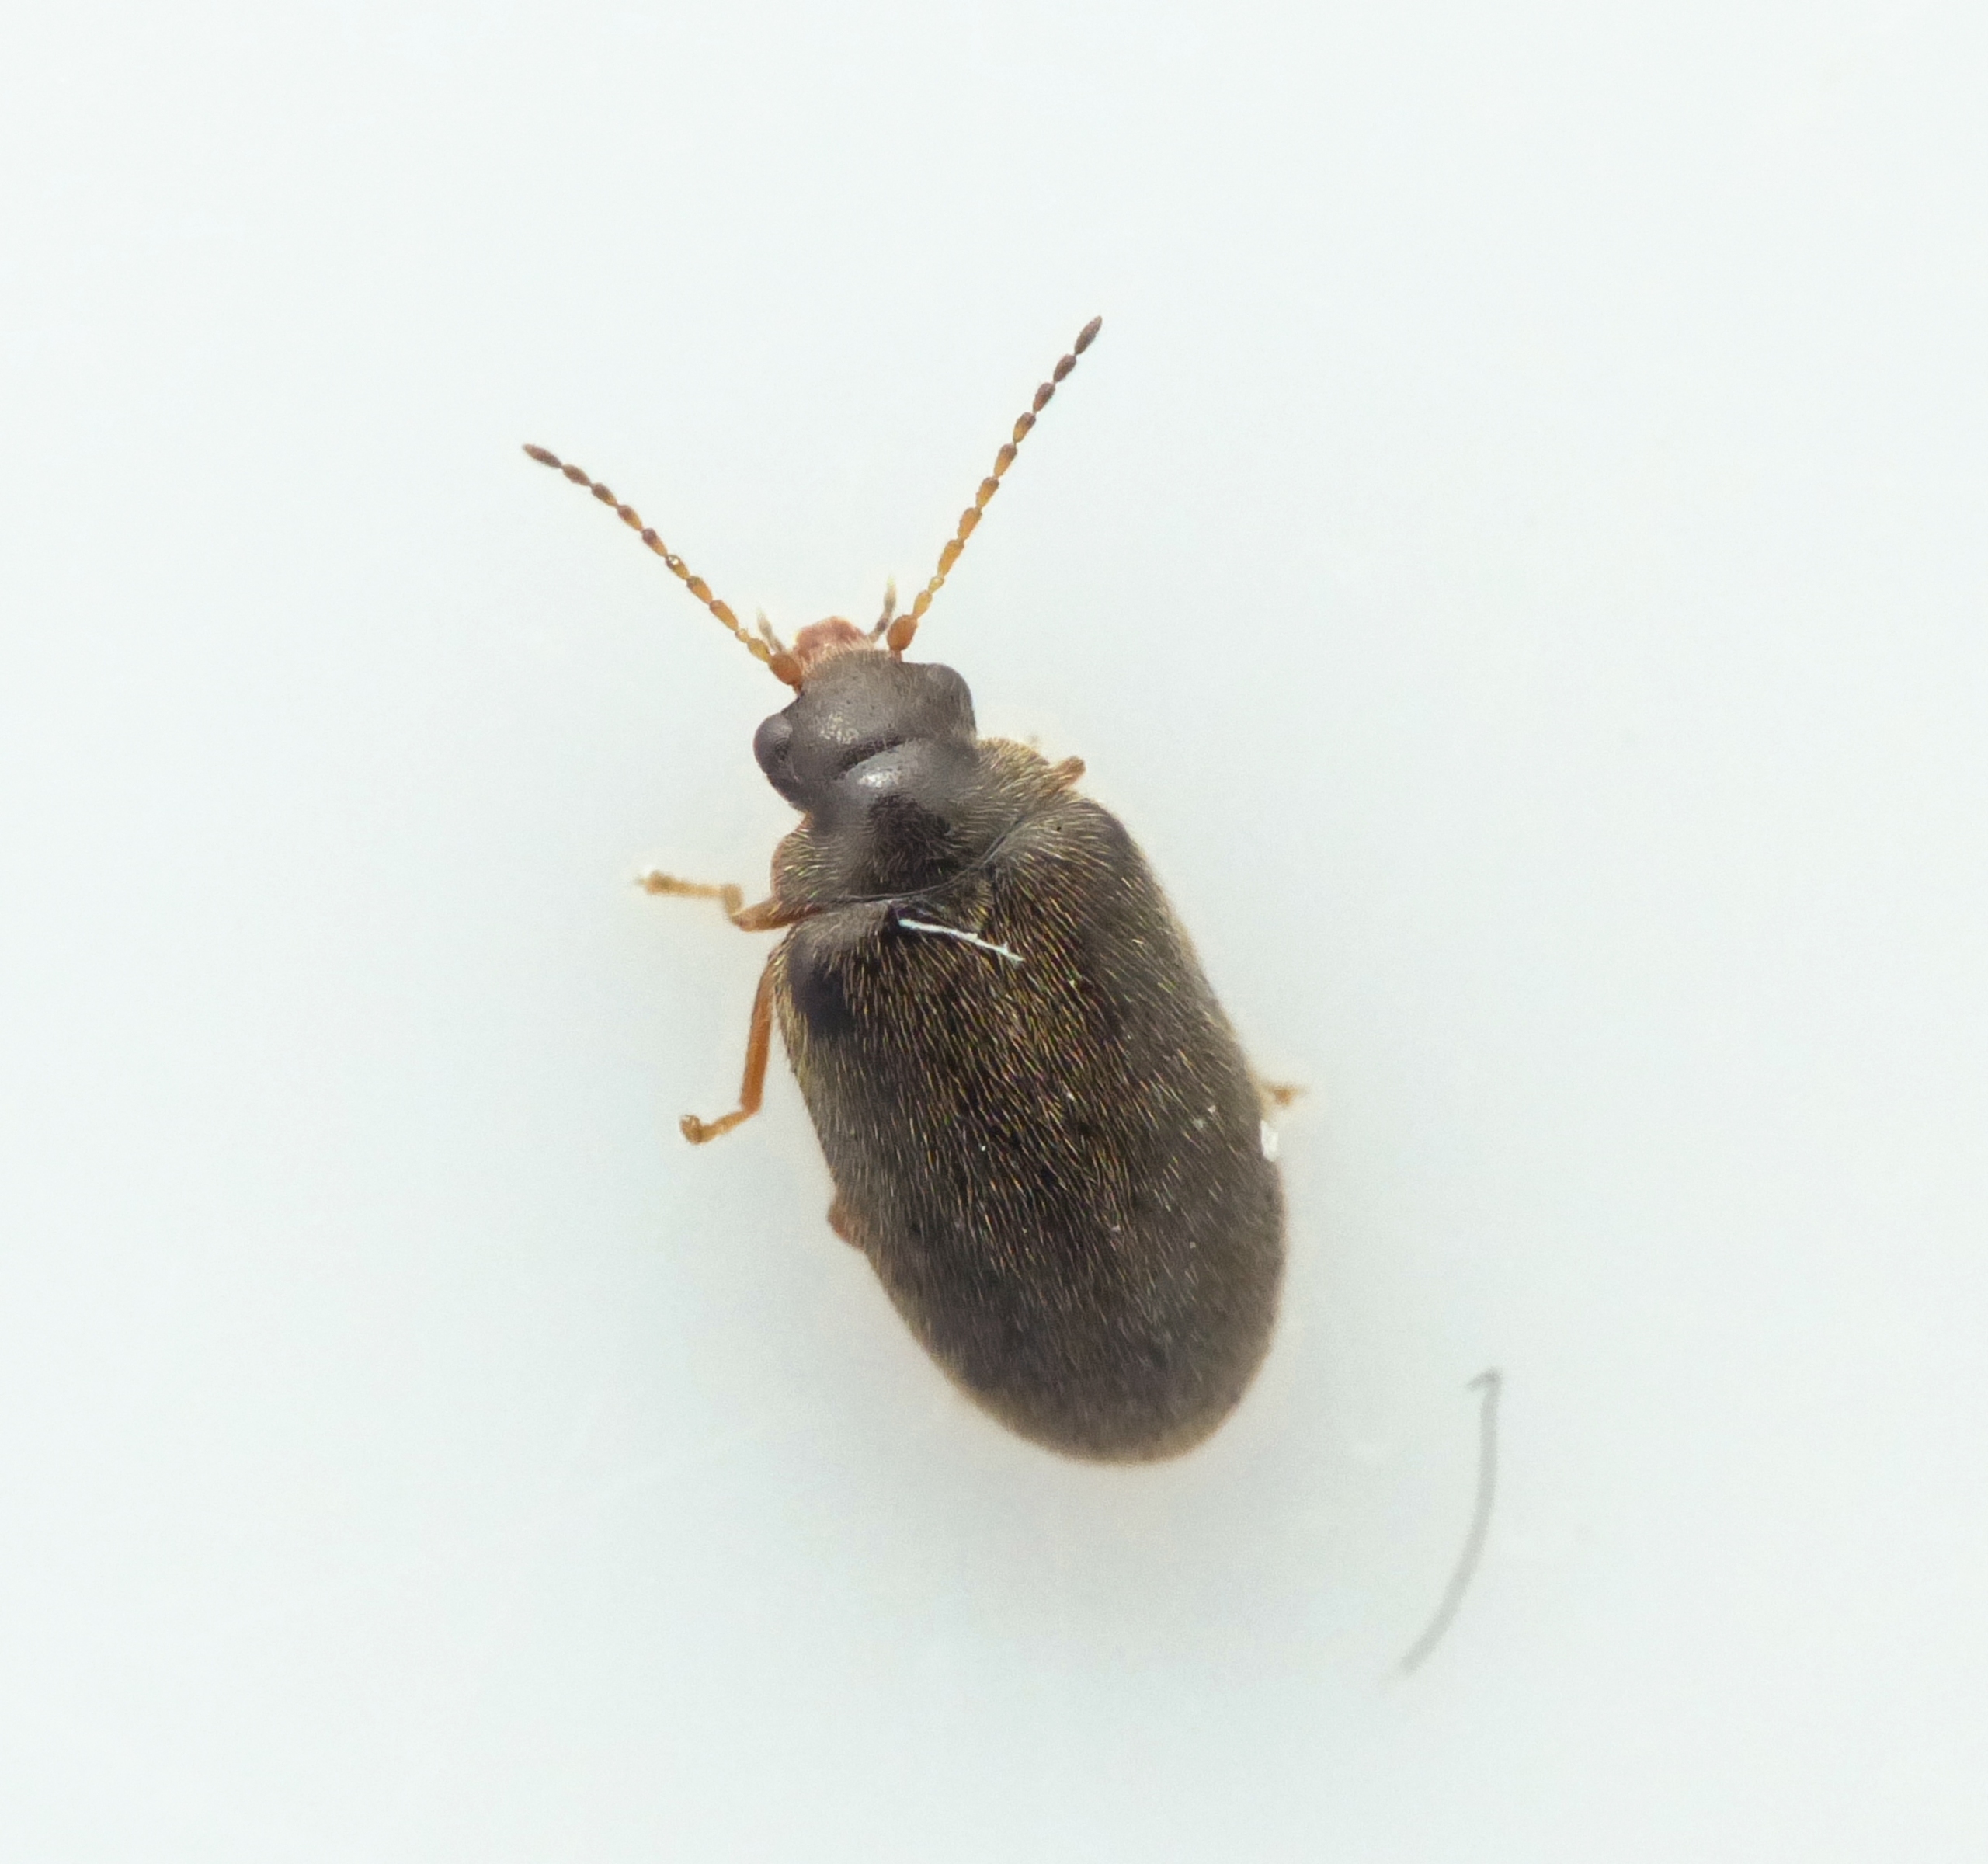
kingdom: Animalia
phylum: Arthropoda
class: Insecta
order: Coleoptera
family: Scirtidae
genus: Contacyphon
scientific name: Contacyphon coarctatus
